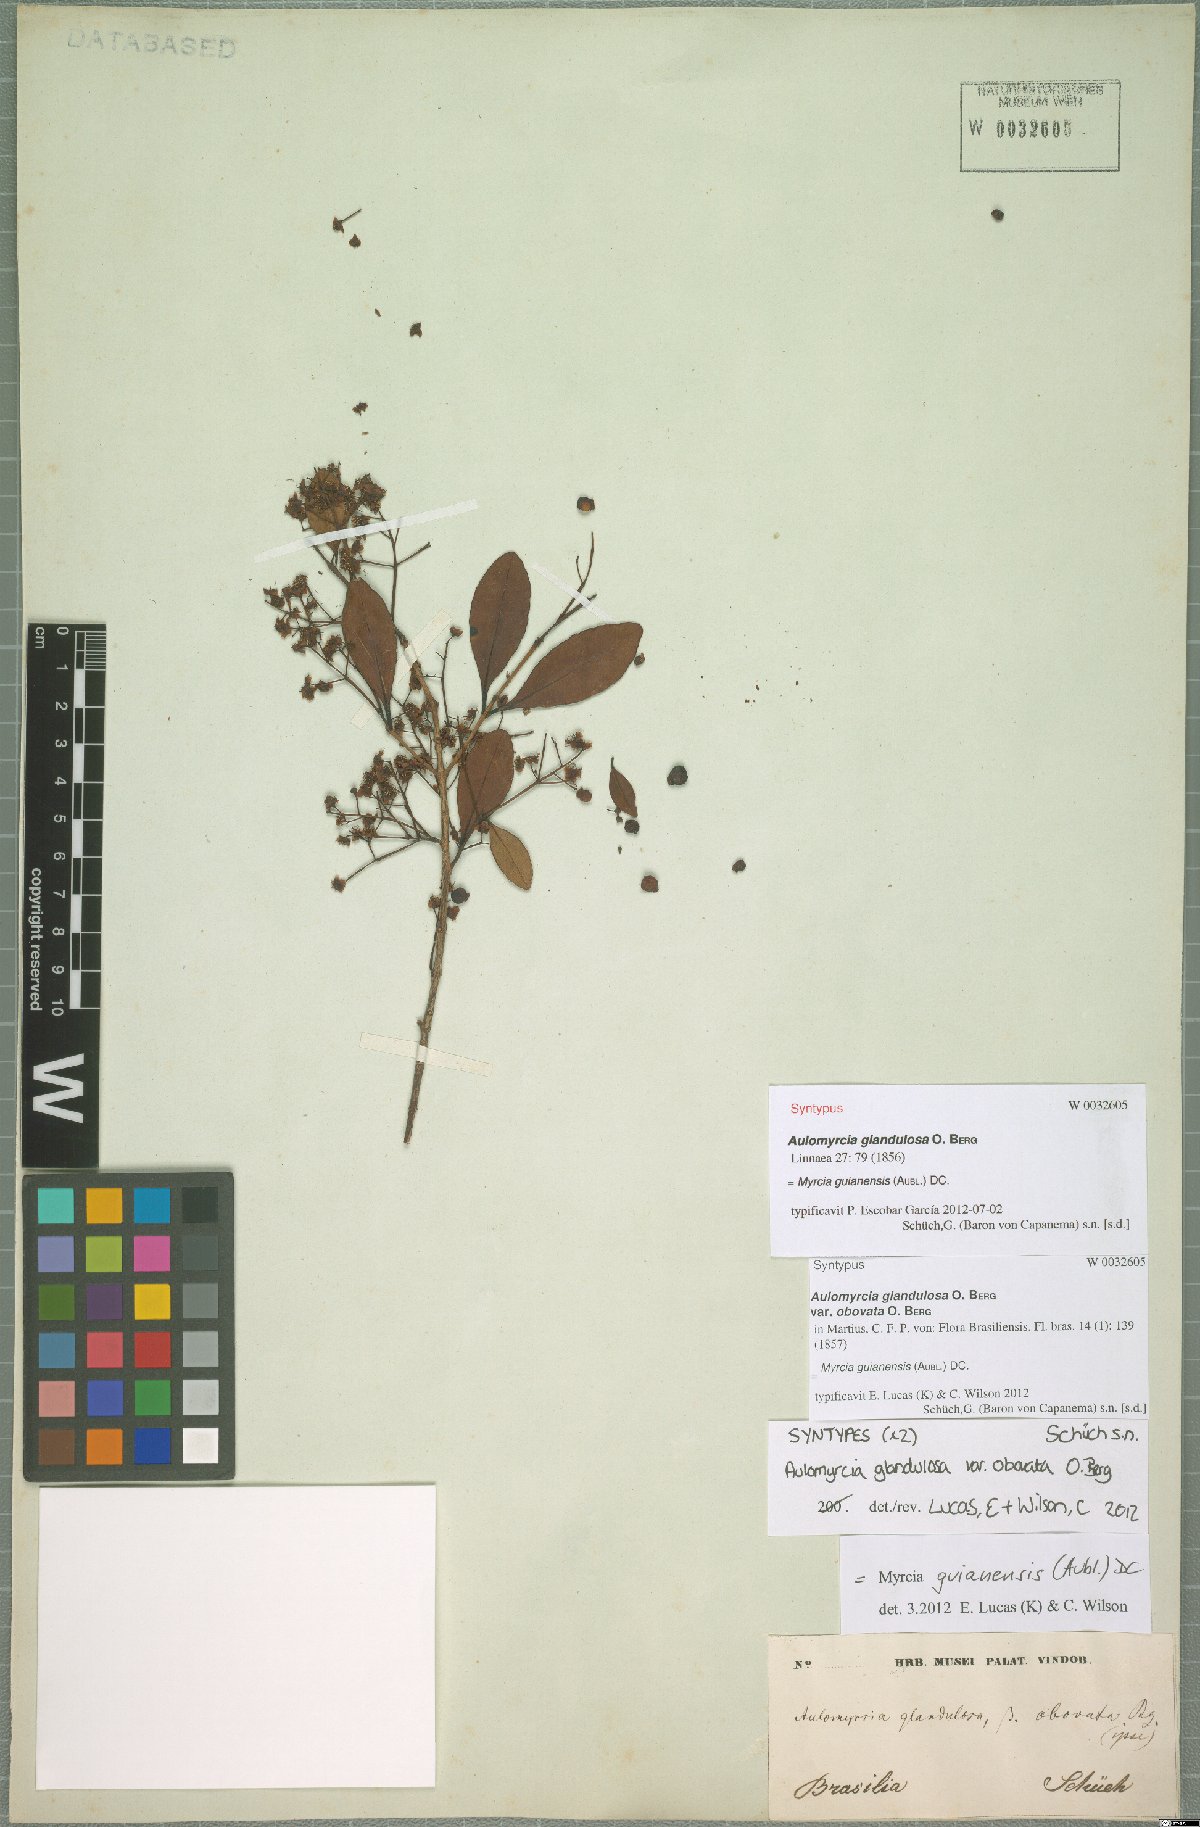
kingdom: Plantae
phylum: Tracheophyta
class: Magnoliopsida
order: Myrtales
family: Myrtaceae
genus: Myrcia
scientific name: Myrcia guianensis
